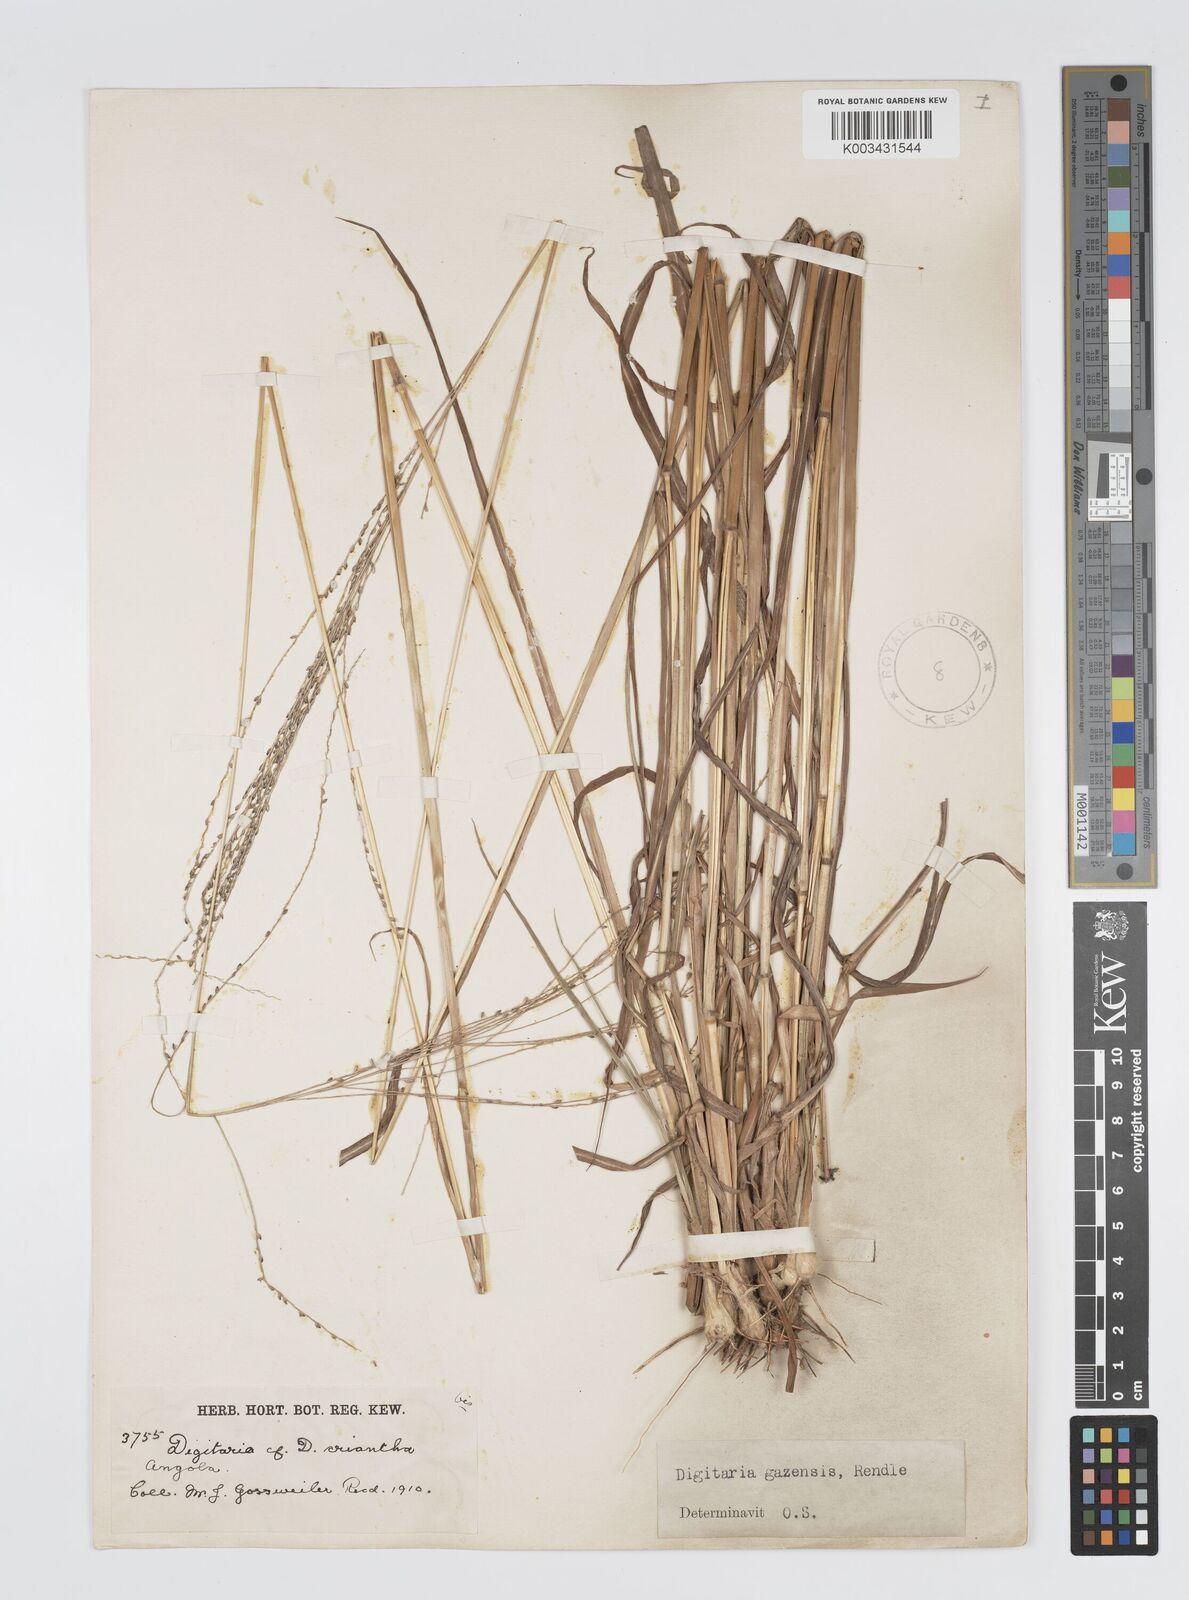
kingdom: Plantae
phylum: Tracheophyta
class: Liliopsida
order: Poales
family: Poaceae
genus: Digitaria
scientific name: Digitaria gazensis
